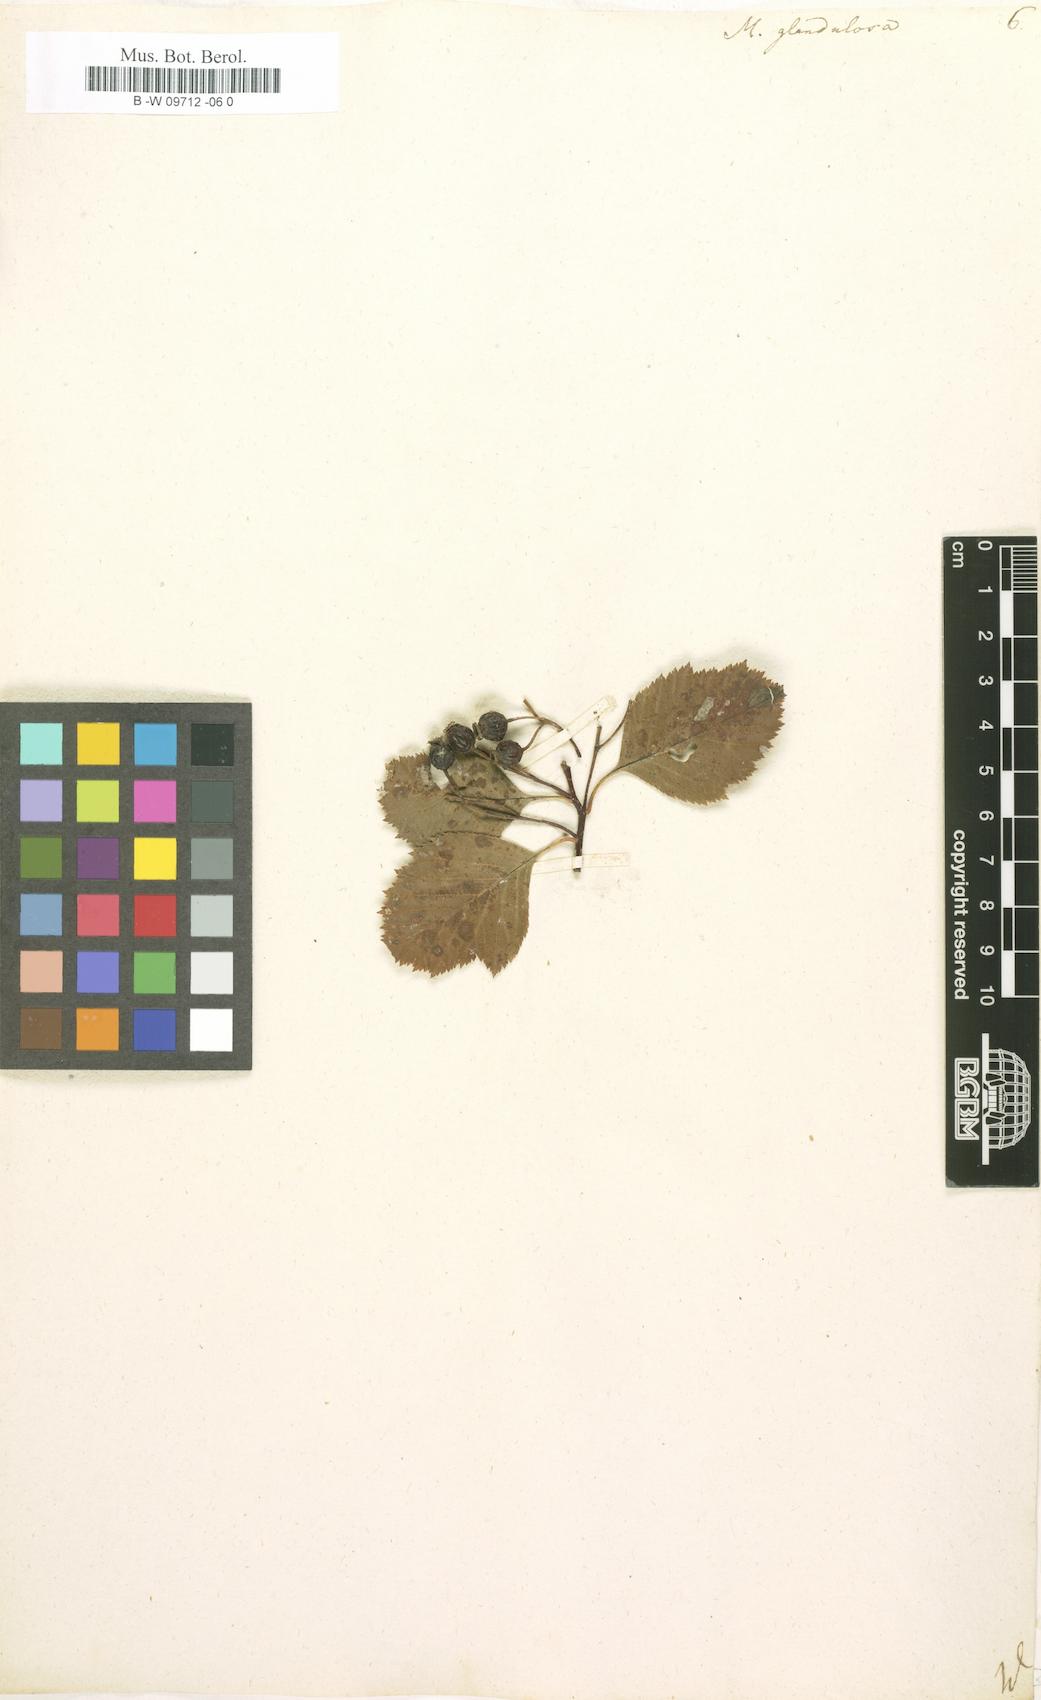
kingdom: Plantae
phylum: Tracheophyta
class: Magnoliopsida
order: Rosales
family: Rosaceae
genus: Crataegus
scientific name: Crataegus
